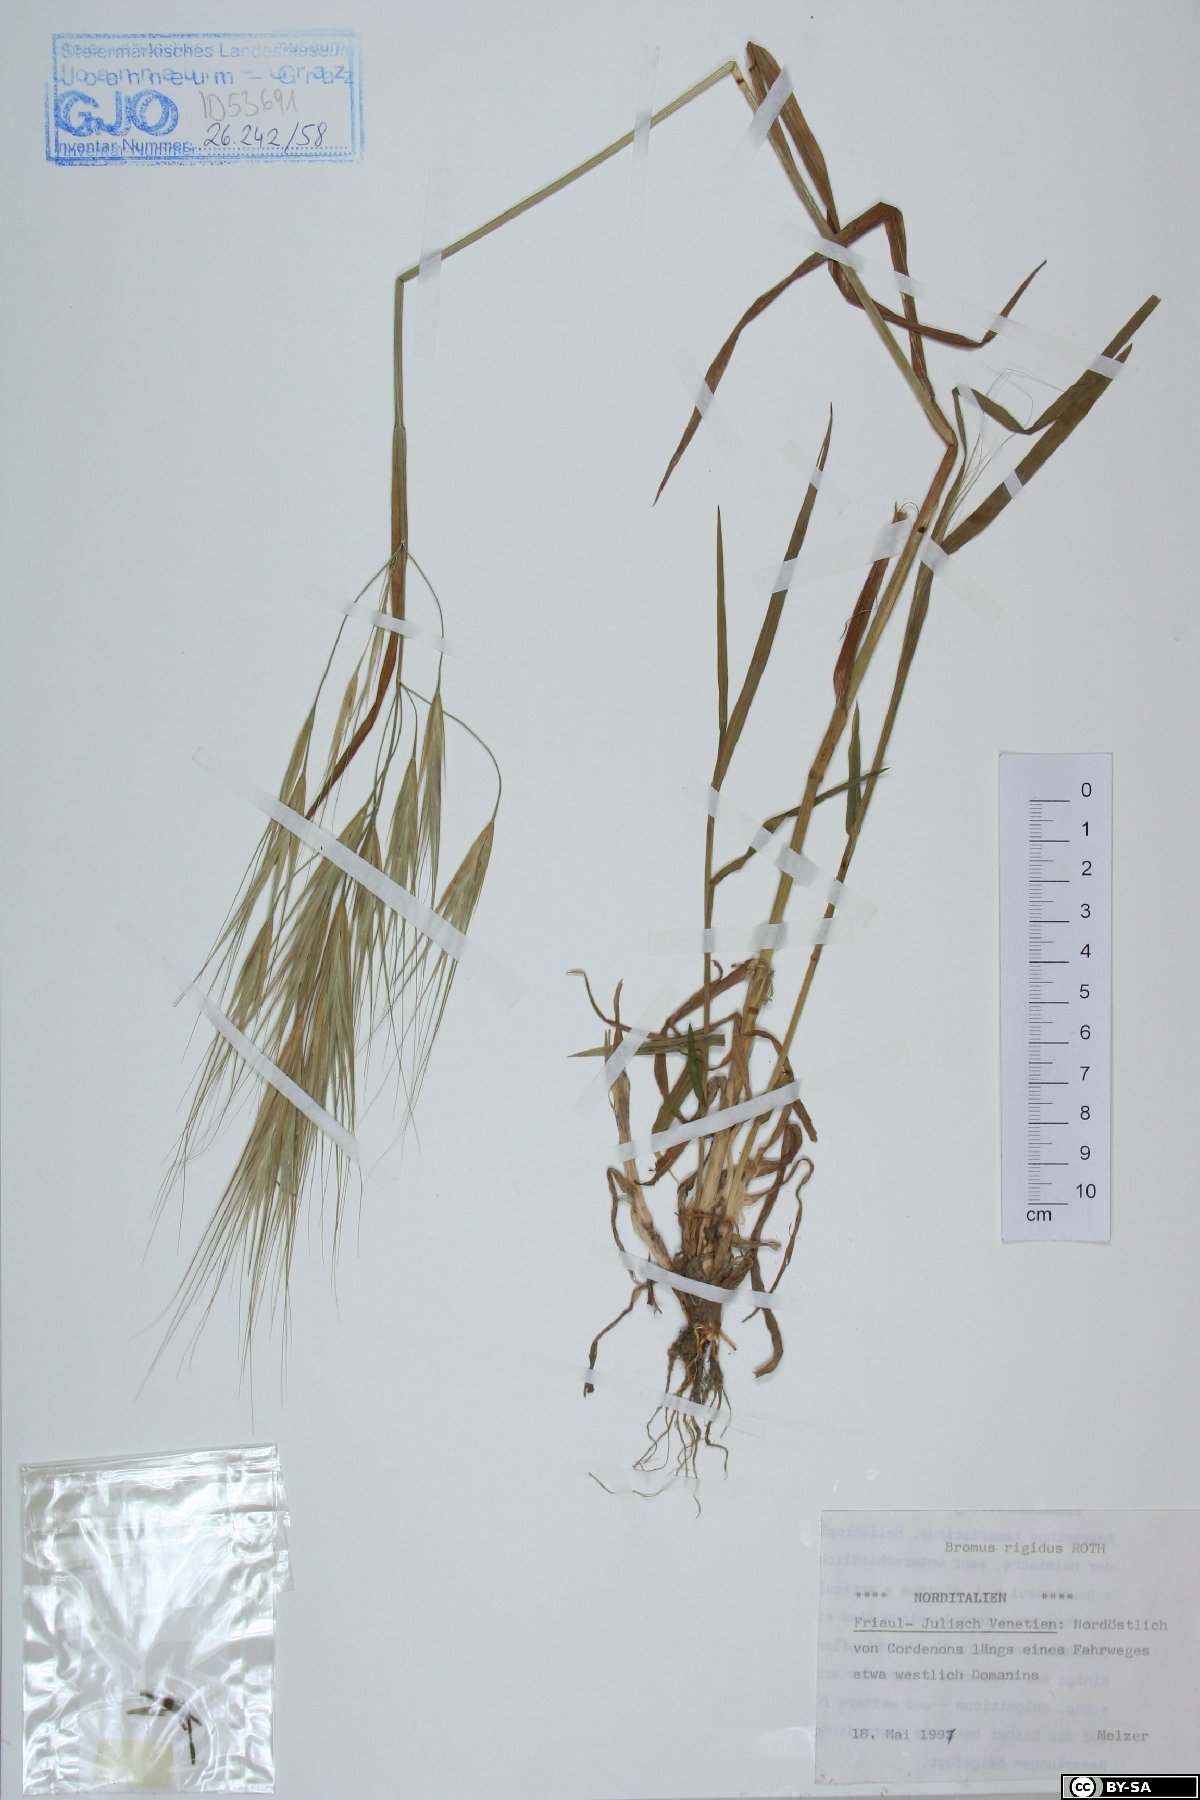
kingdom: Plantae
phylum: Tracheophyta
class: Liliopsida
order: Poales
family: Poaceae
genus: Bromus
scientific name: Bromus rigidus
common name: Ripgut brome
